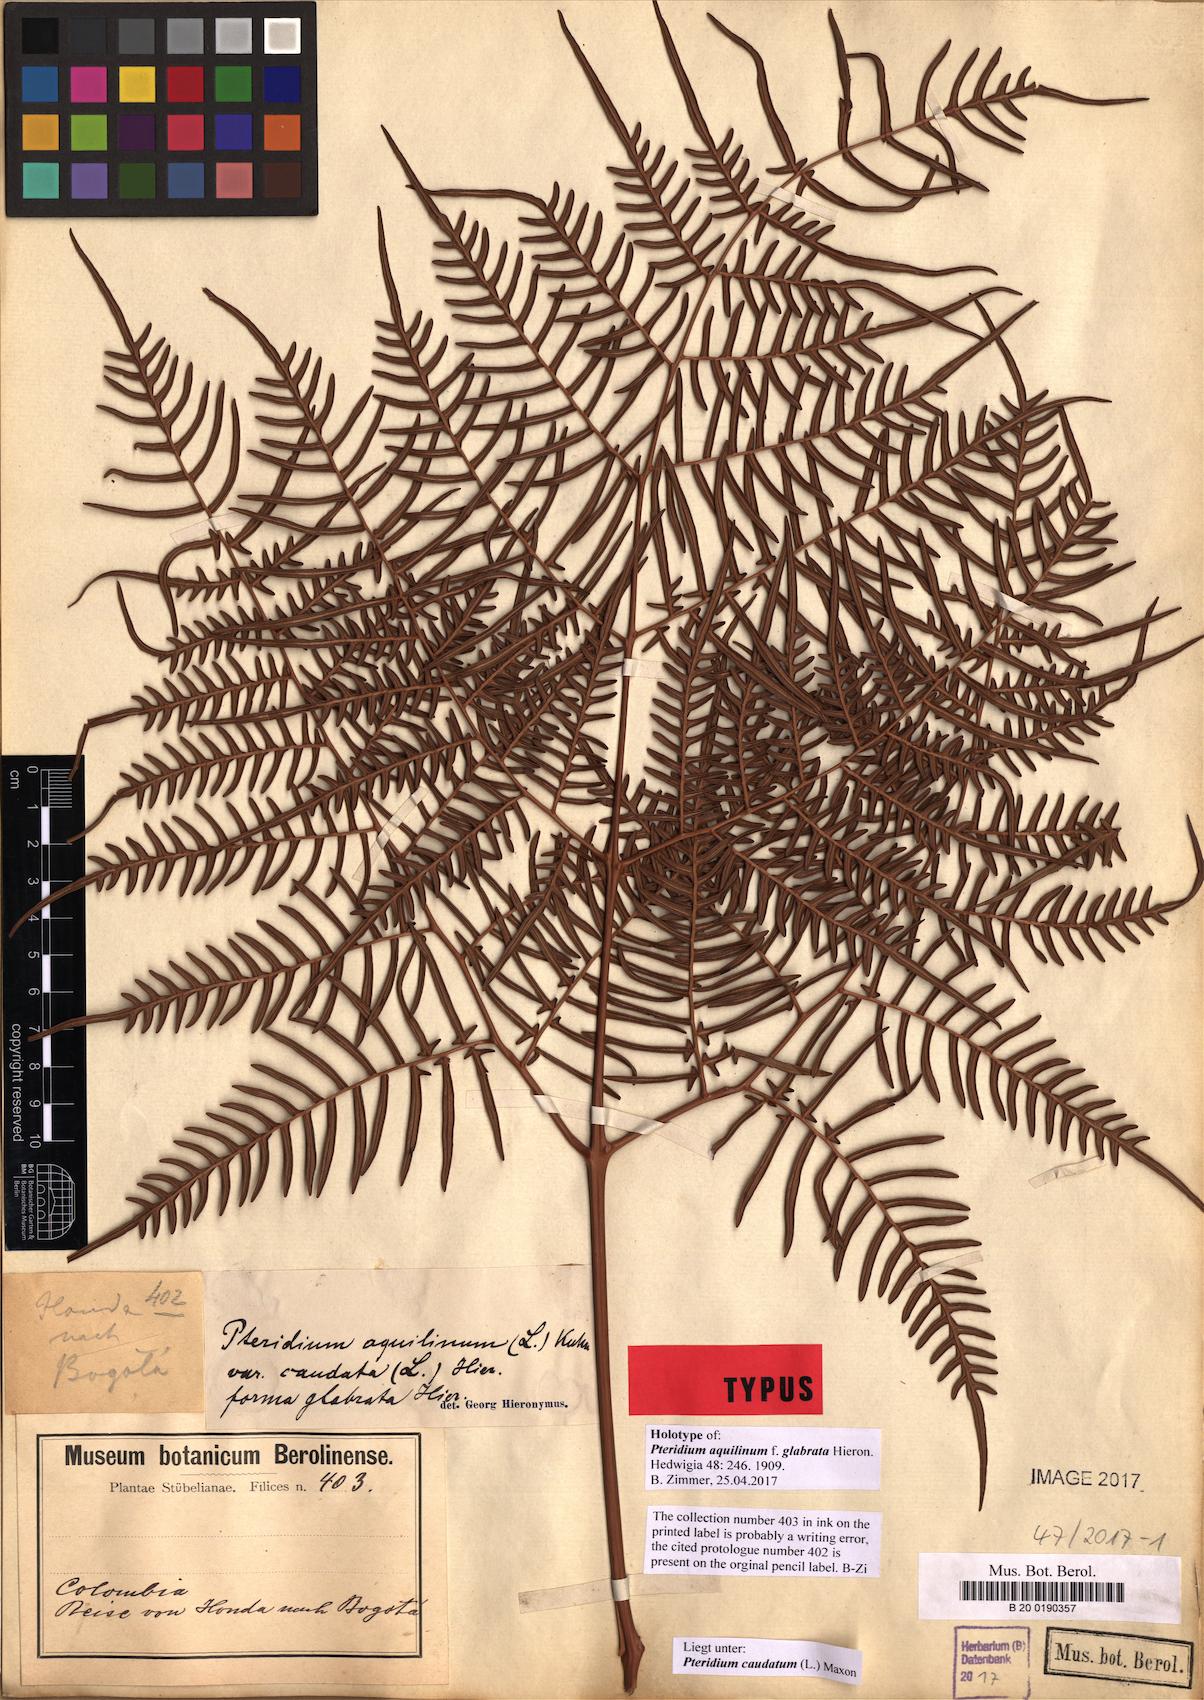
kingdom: Plantae
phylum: Tracheophyta
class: Polypodiopsida
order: Polypodiales
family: Dennstaedtiaceae
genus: Pteridium
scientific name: Pteridium caudatum
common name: Southern bracken fern
